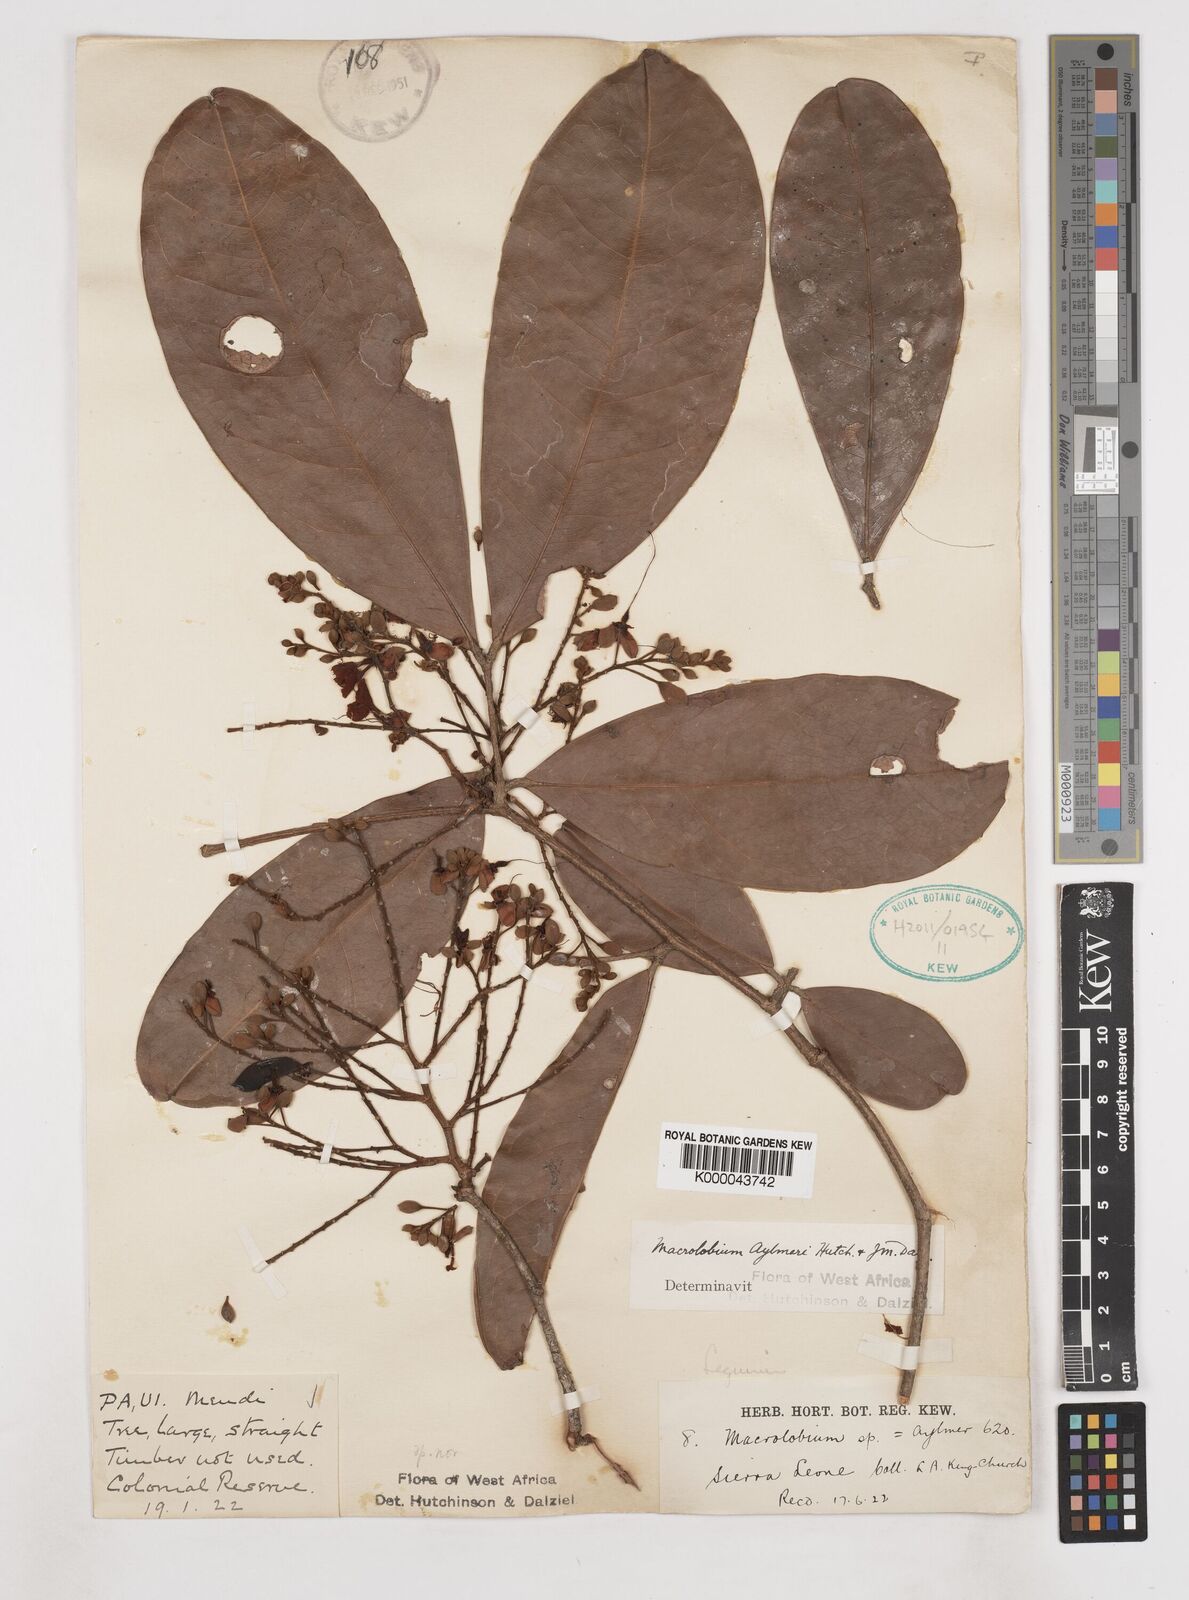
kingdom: Plantae
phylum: Tracheophyta
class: Magnoliopsida
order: Fabales
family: Fabaceae
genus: Gilbertiodendron
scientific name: Gilbertiodendron
